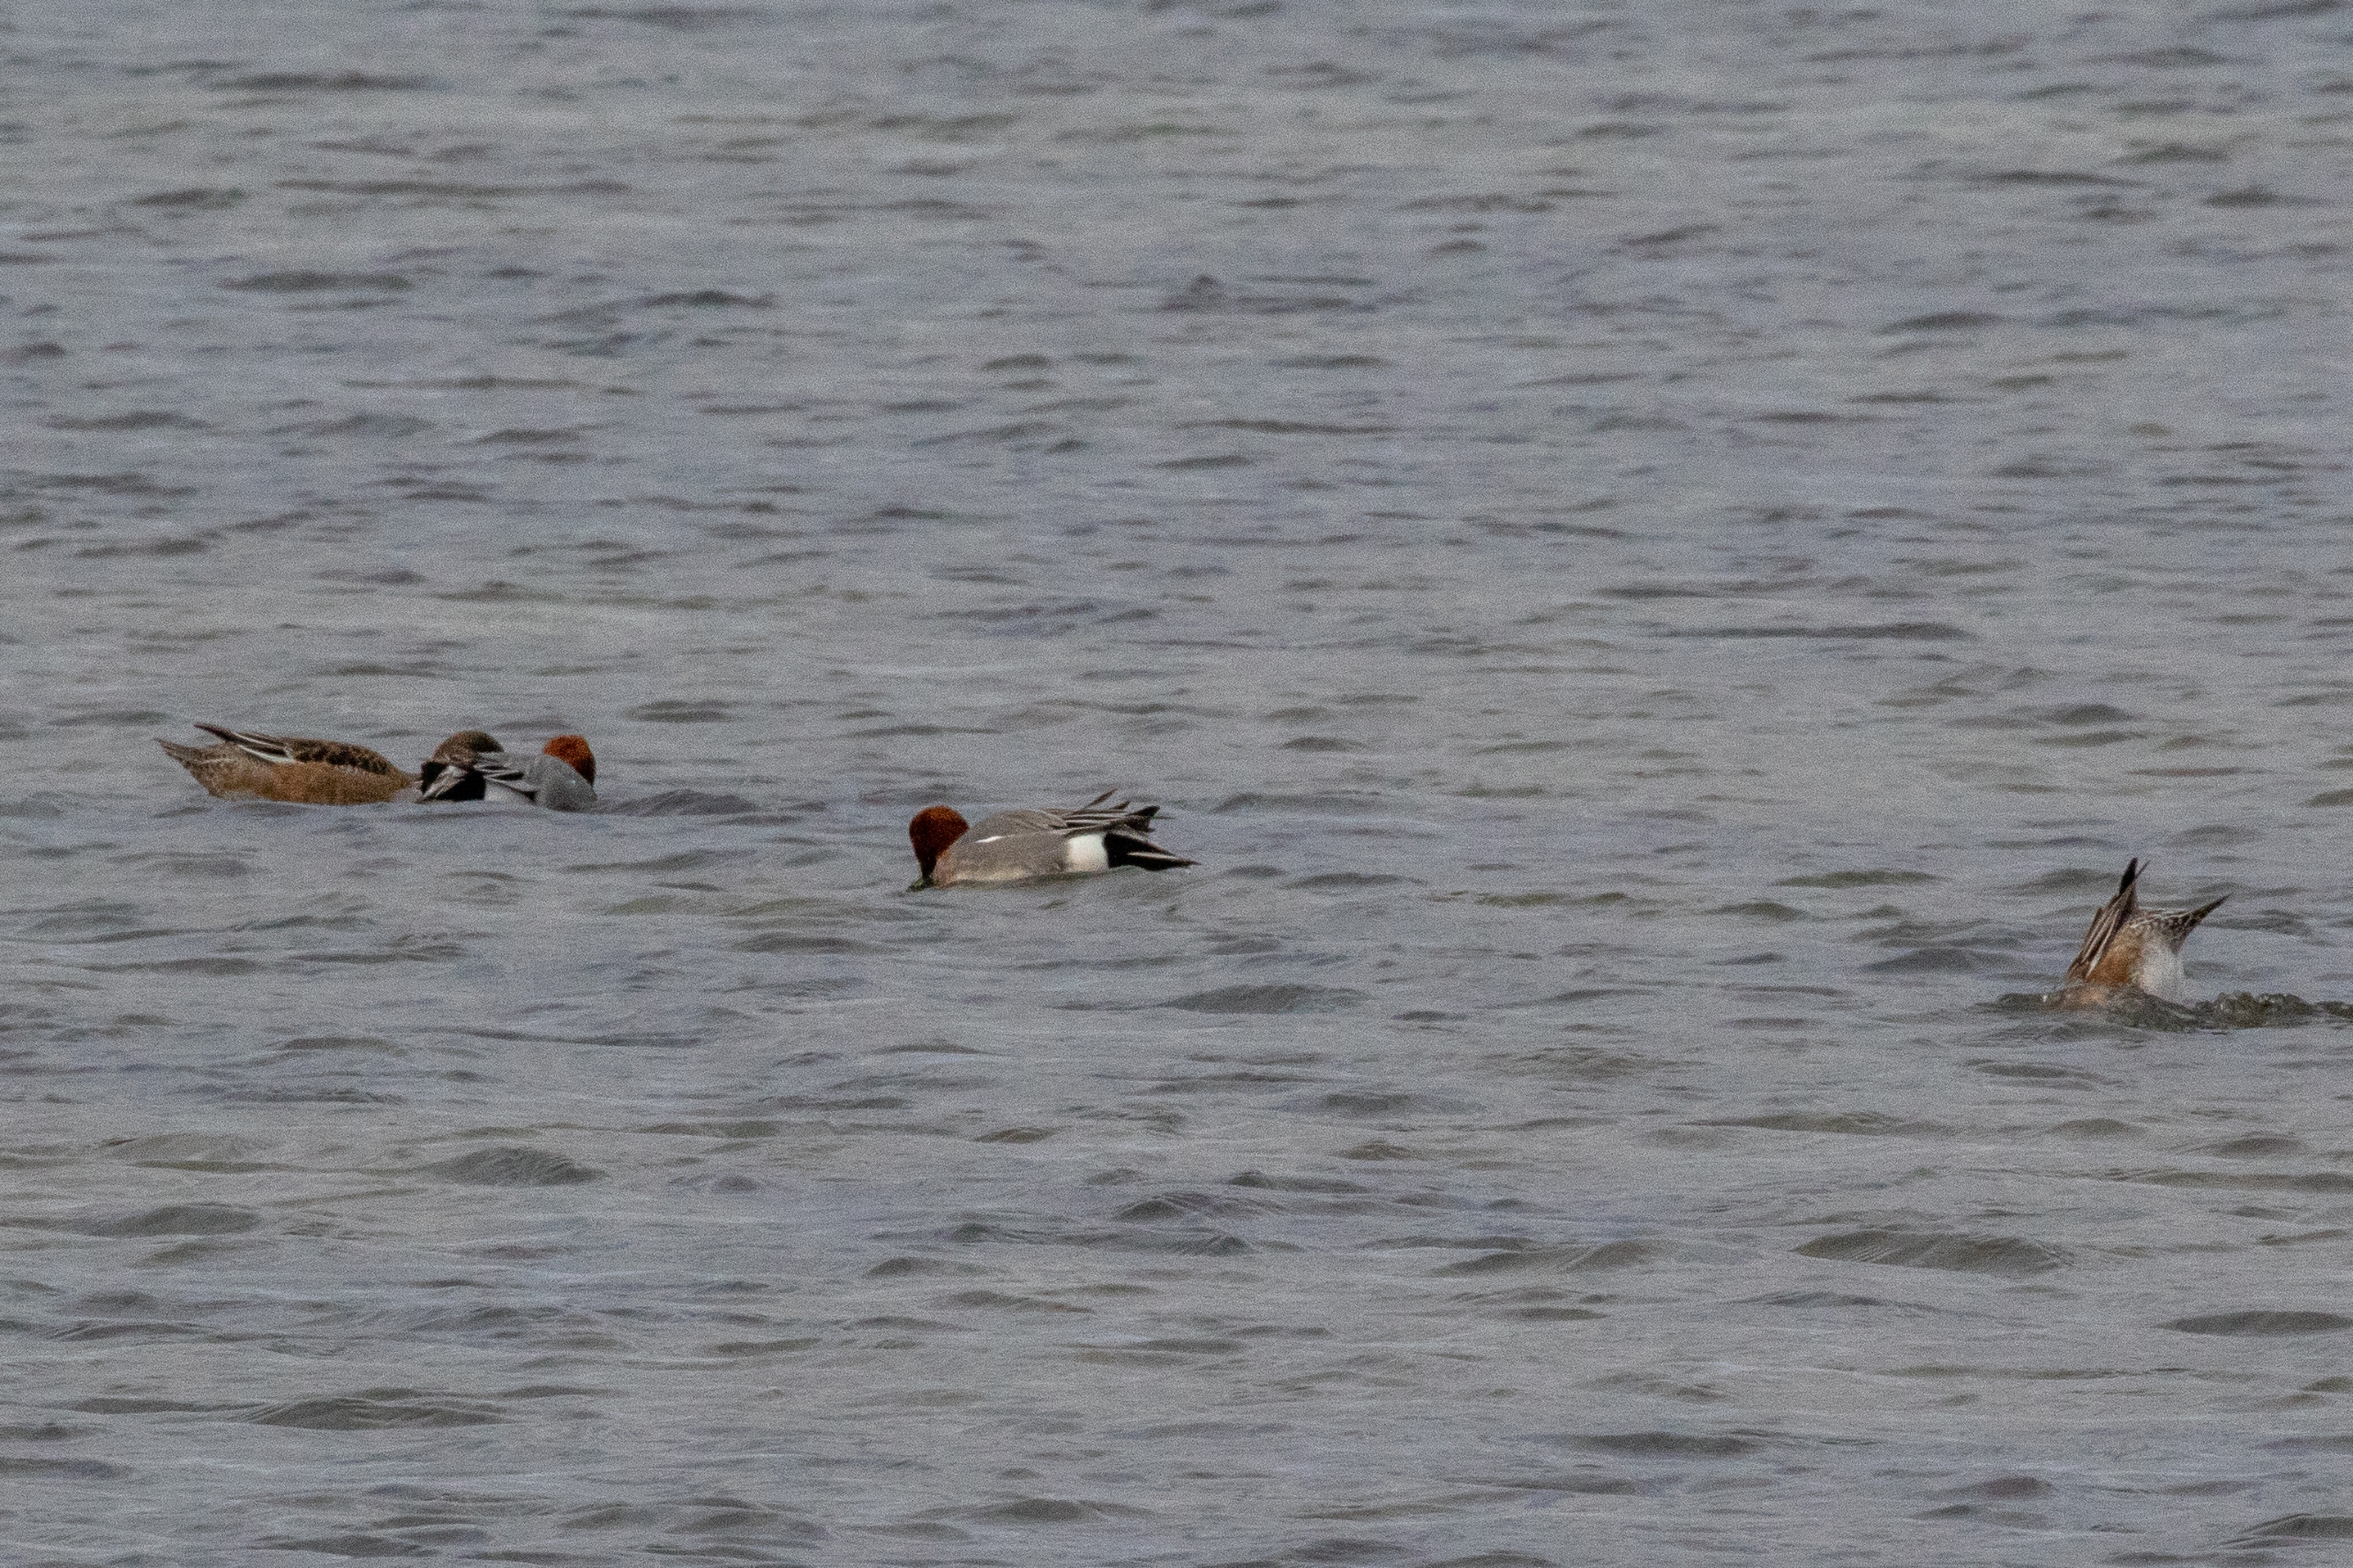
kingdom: Animalia
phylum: Chordata
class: Aves
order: Anseriformes
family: Anatidae
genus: Mareca
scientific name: Mareca penelope
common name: Pibeand
